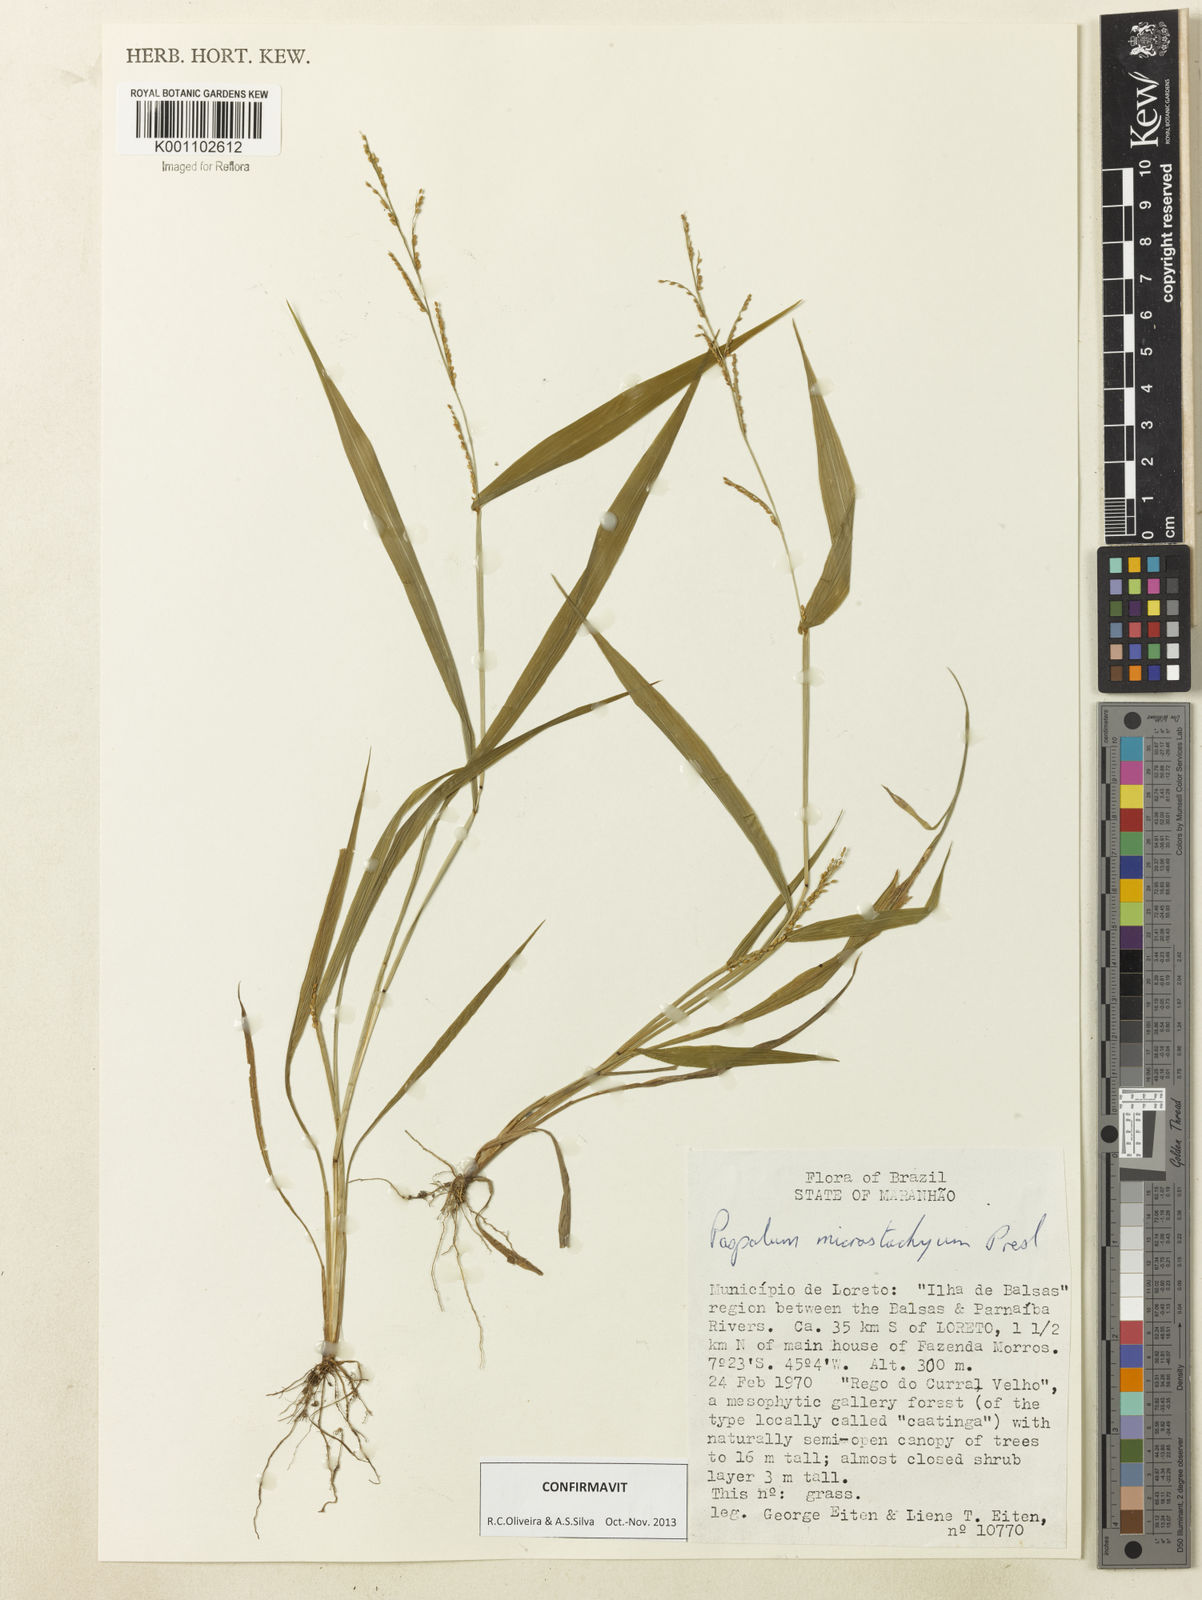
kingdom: Plantae
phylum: Tracheophyta
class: Liliopsida
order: Poales
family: Poaceae
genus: Paspalum
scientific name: Paspalum microstachyum
